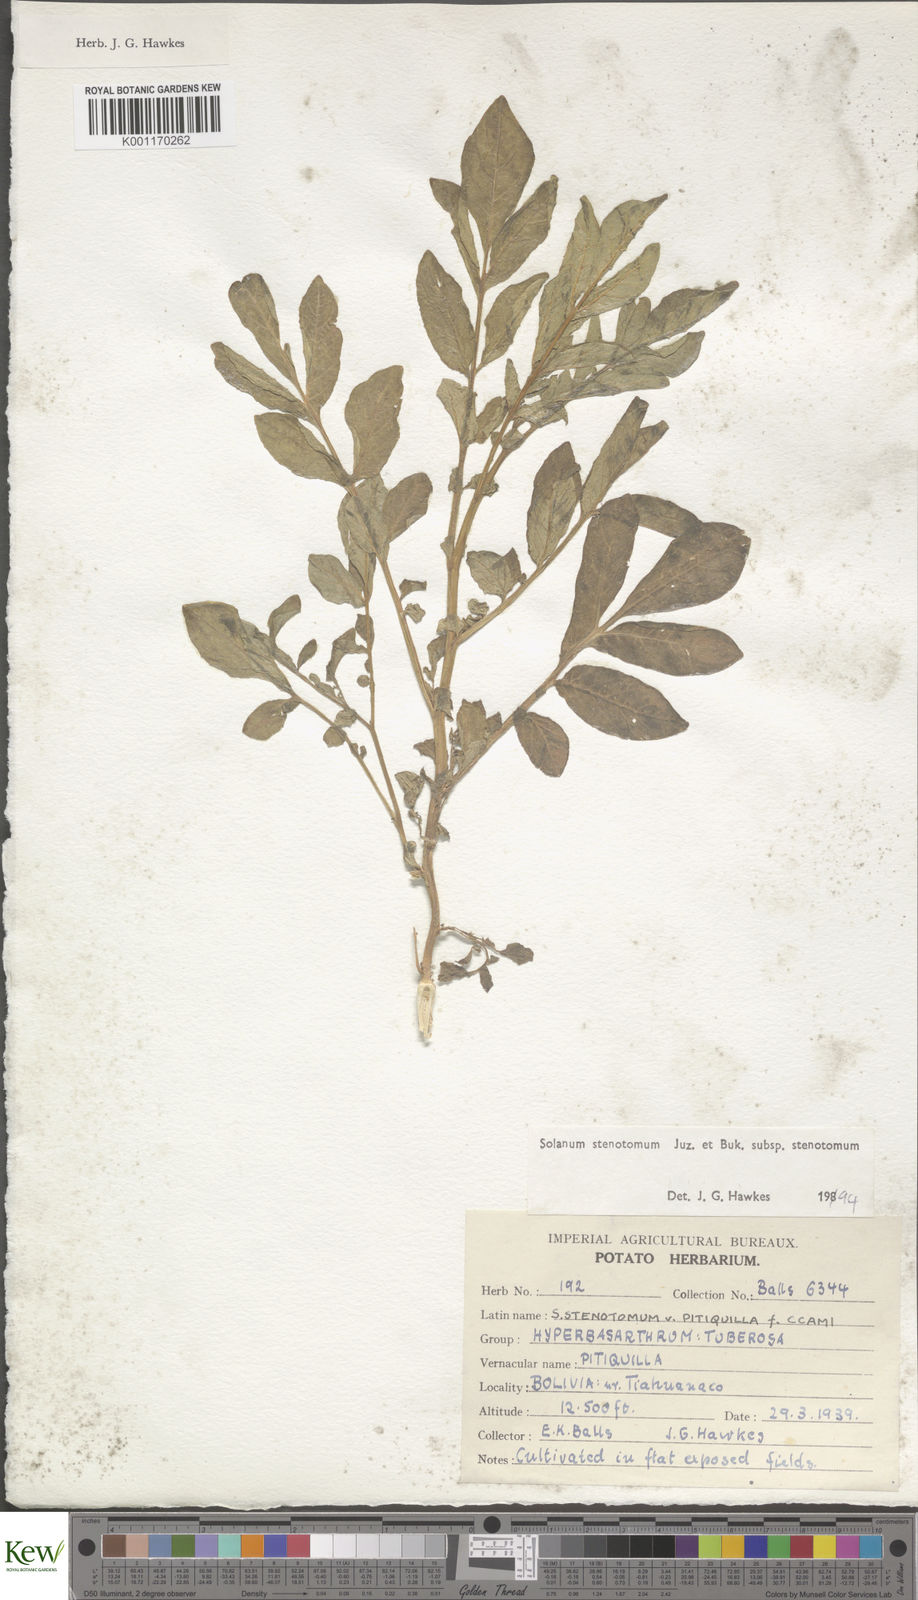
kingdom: Plantae
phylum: Tracheophyta
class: Magnoliopsida
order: Solanales
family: Solanaceae
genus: Solanum
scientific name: Solanum tuberosum
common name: Potato
